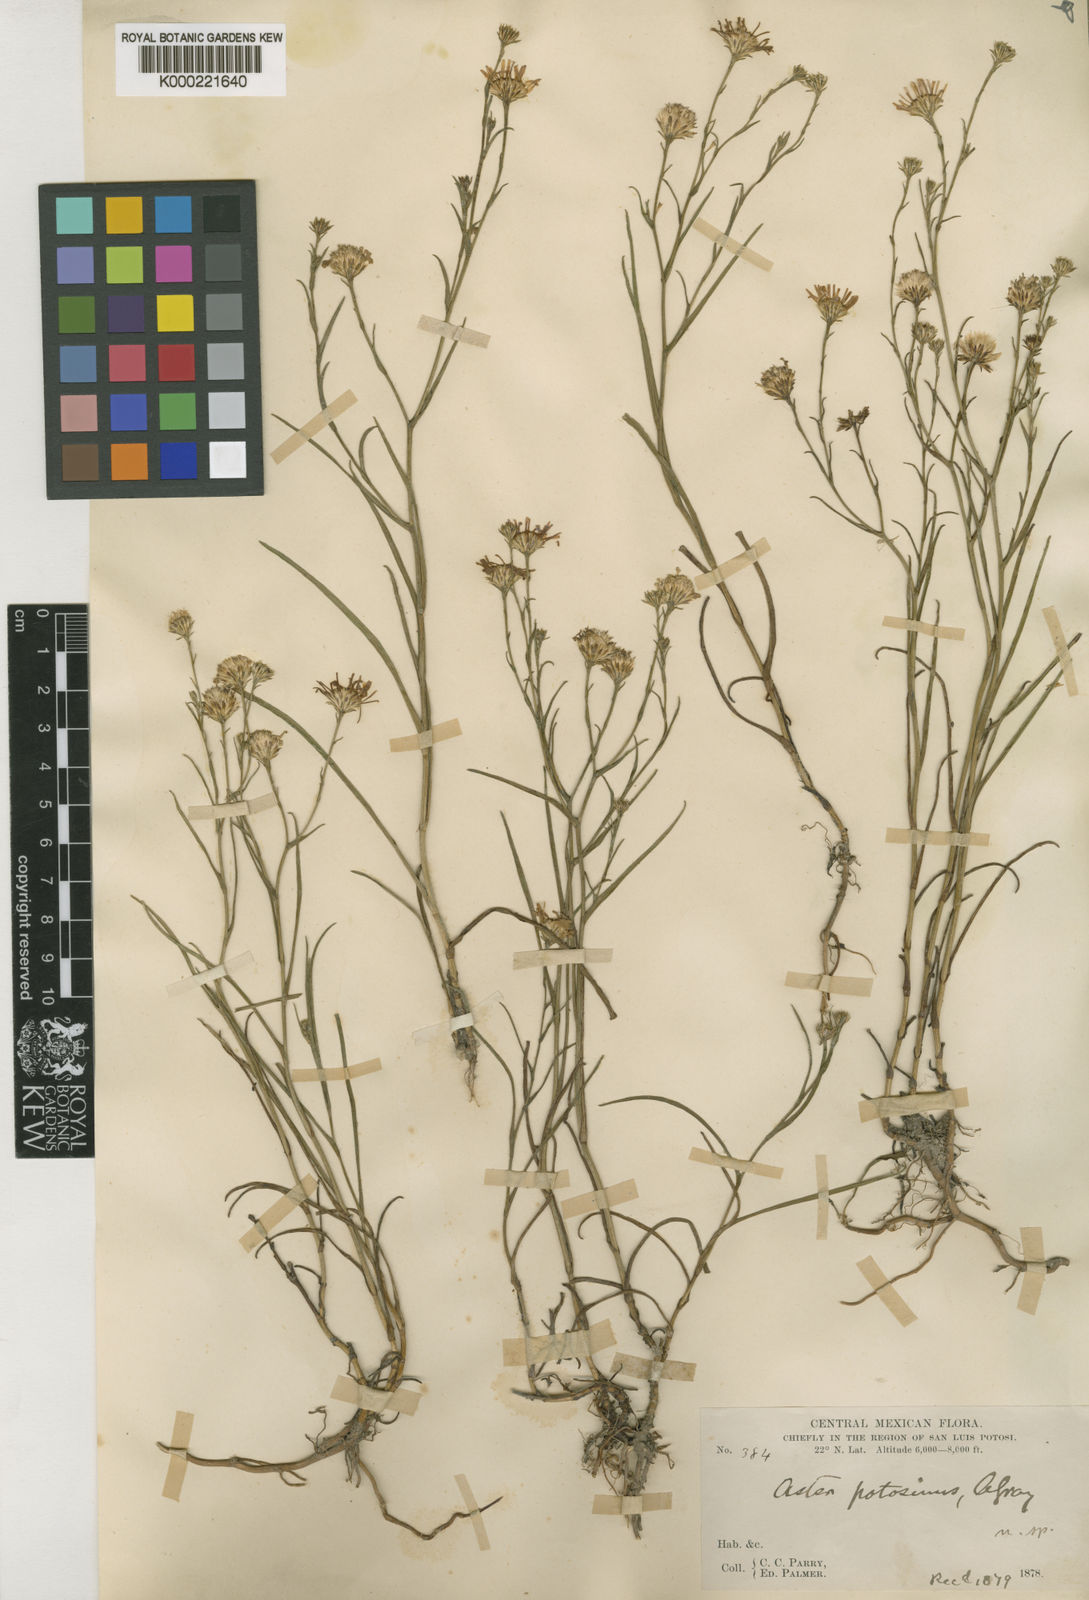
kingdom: Plantae
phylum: Tracheophyta
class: Magnoliopsida
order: Asterales
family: Asteraceae
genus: Symphyotrichum
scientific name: Symphyotrichum potosinum
